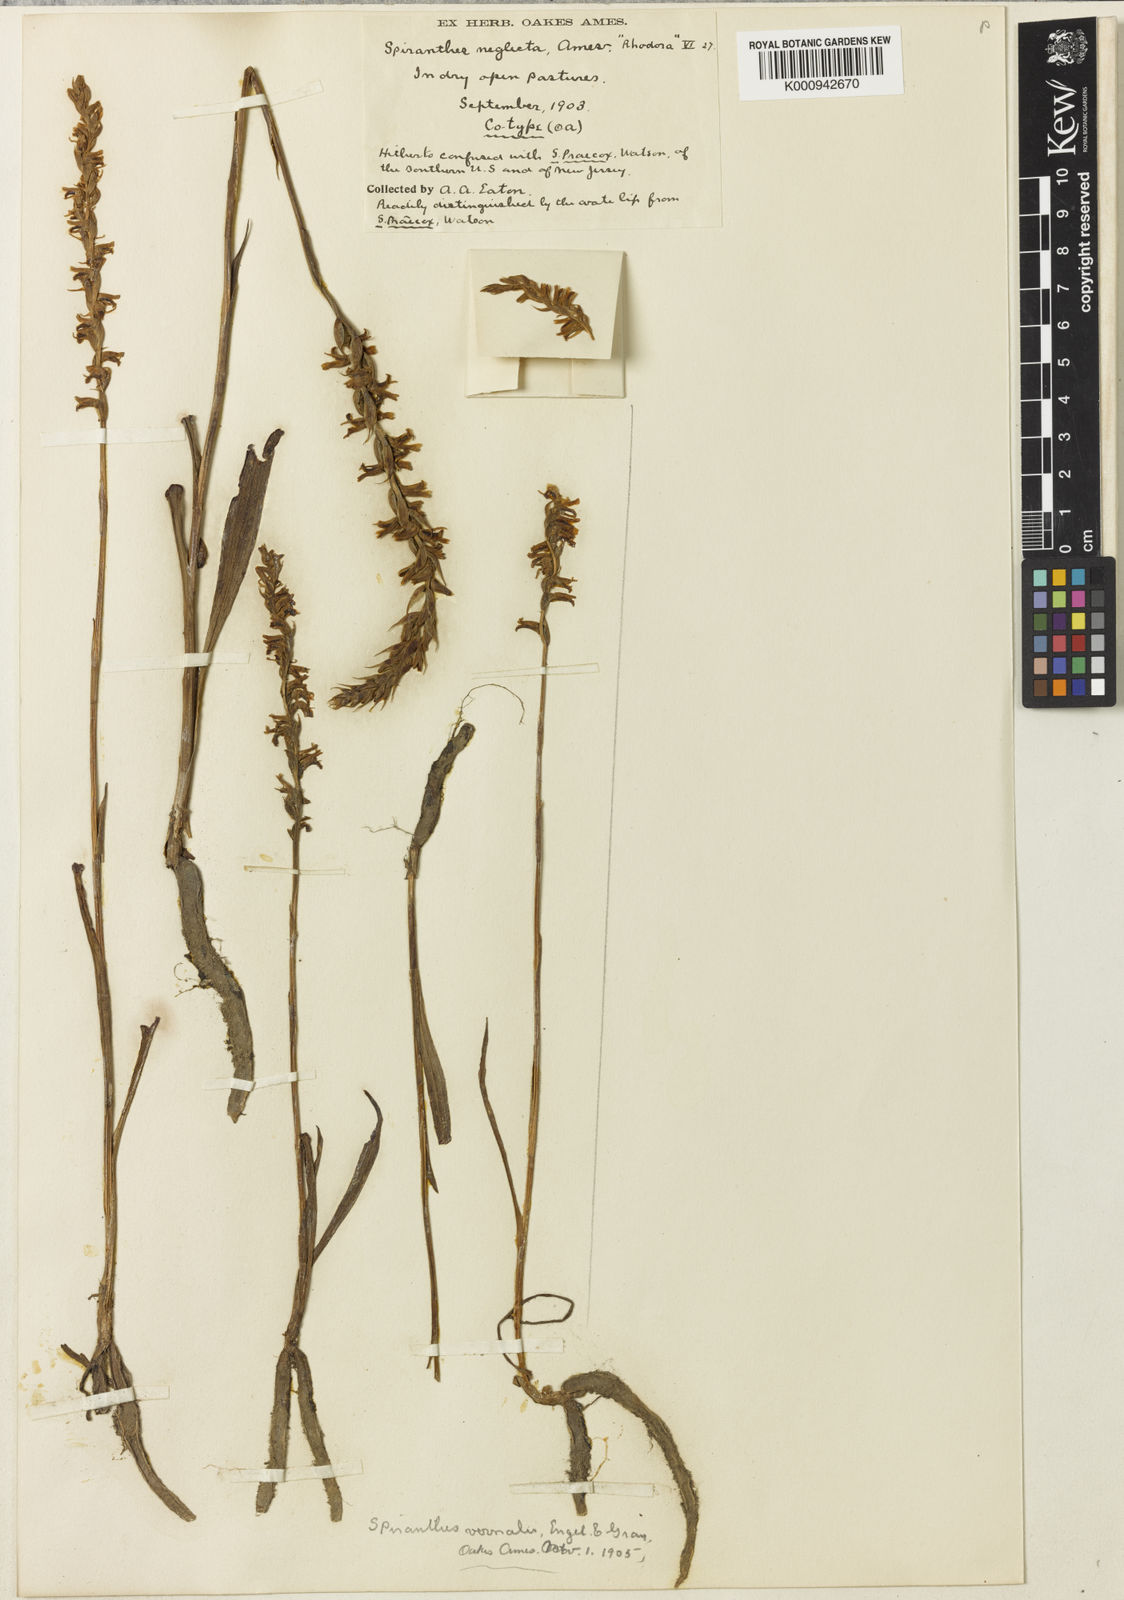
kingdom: Plantae
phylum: Tracheophyta
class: Liliopsida
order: Asparagales
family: Orchidaceae
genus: Spiranthes
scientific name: Spiranthes vernalis
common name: Spring ladies'-tresses
